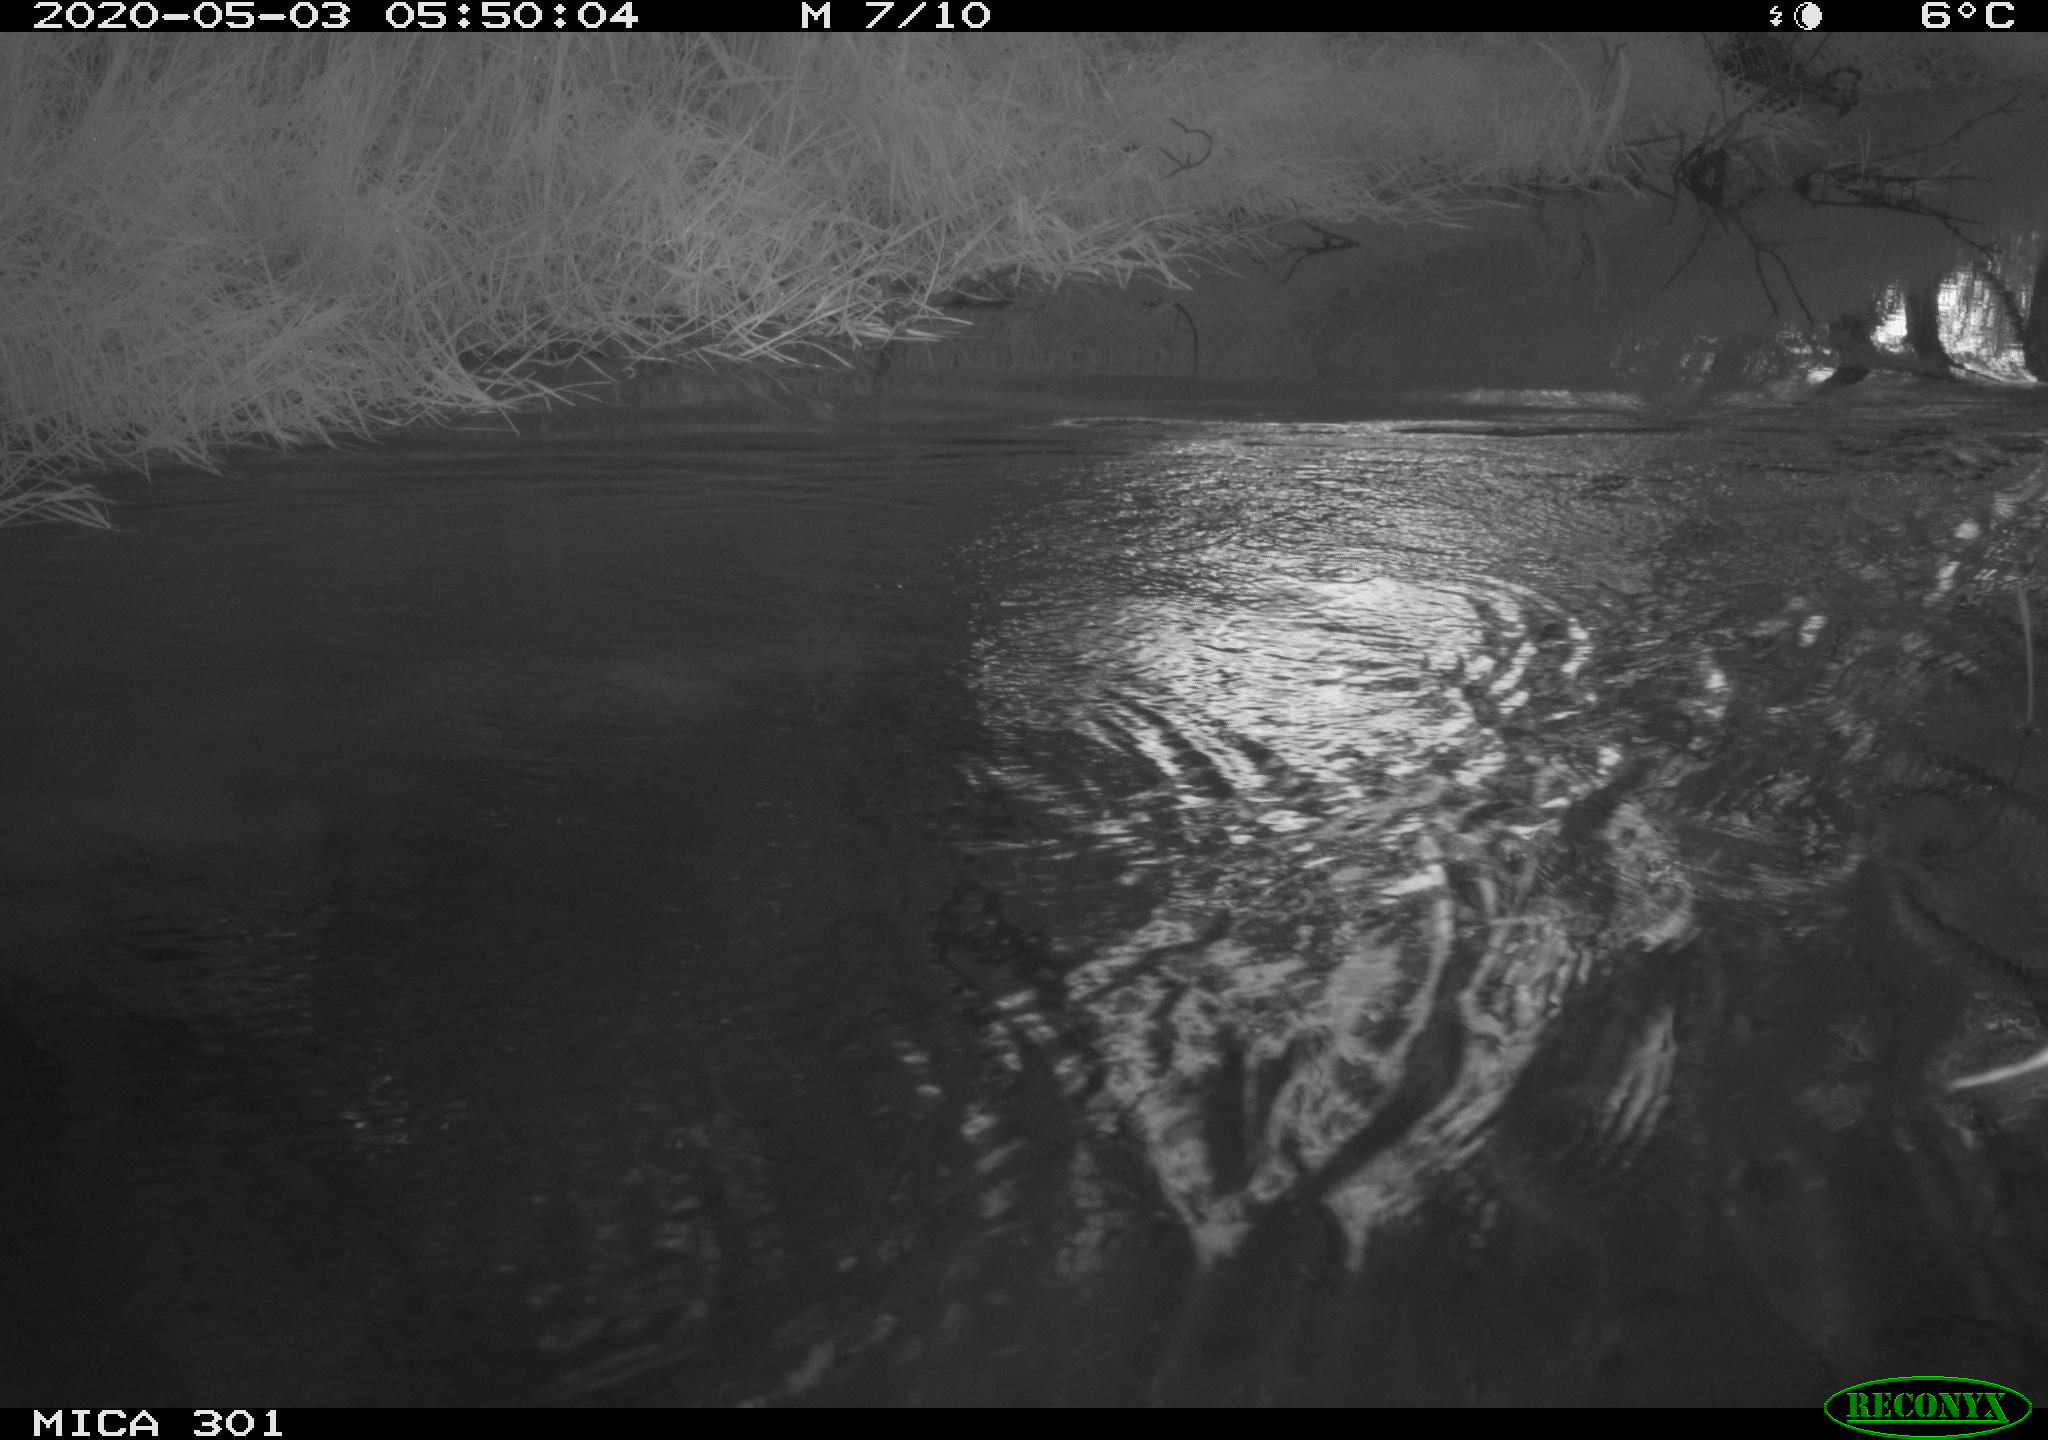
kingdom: Animalia
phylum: Chordata
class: Mammalia
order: Rodentia
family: Castoridae
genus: Castor
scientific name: Castor fiber
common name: Eurasian beaver
